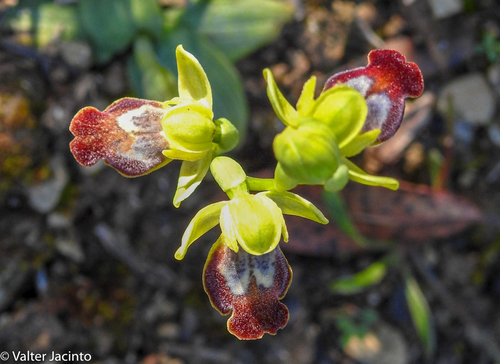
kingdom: Plantae
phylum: Tracheophyta
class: Liliopsida
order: Asparagales
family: Orchidaceae
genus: Ophrys
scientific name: Ophrys fusca
